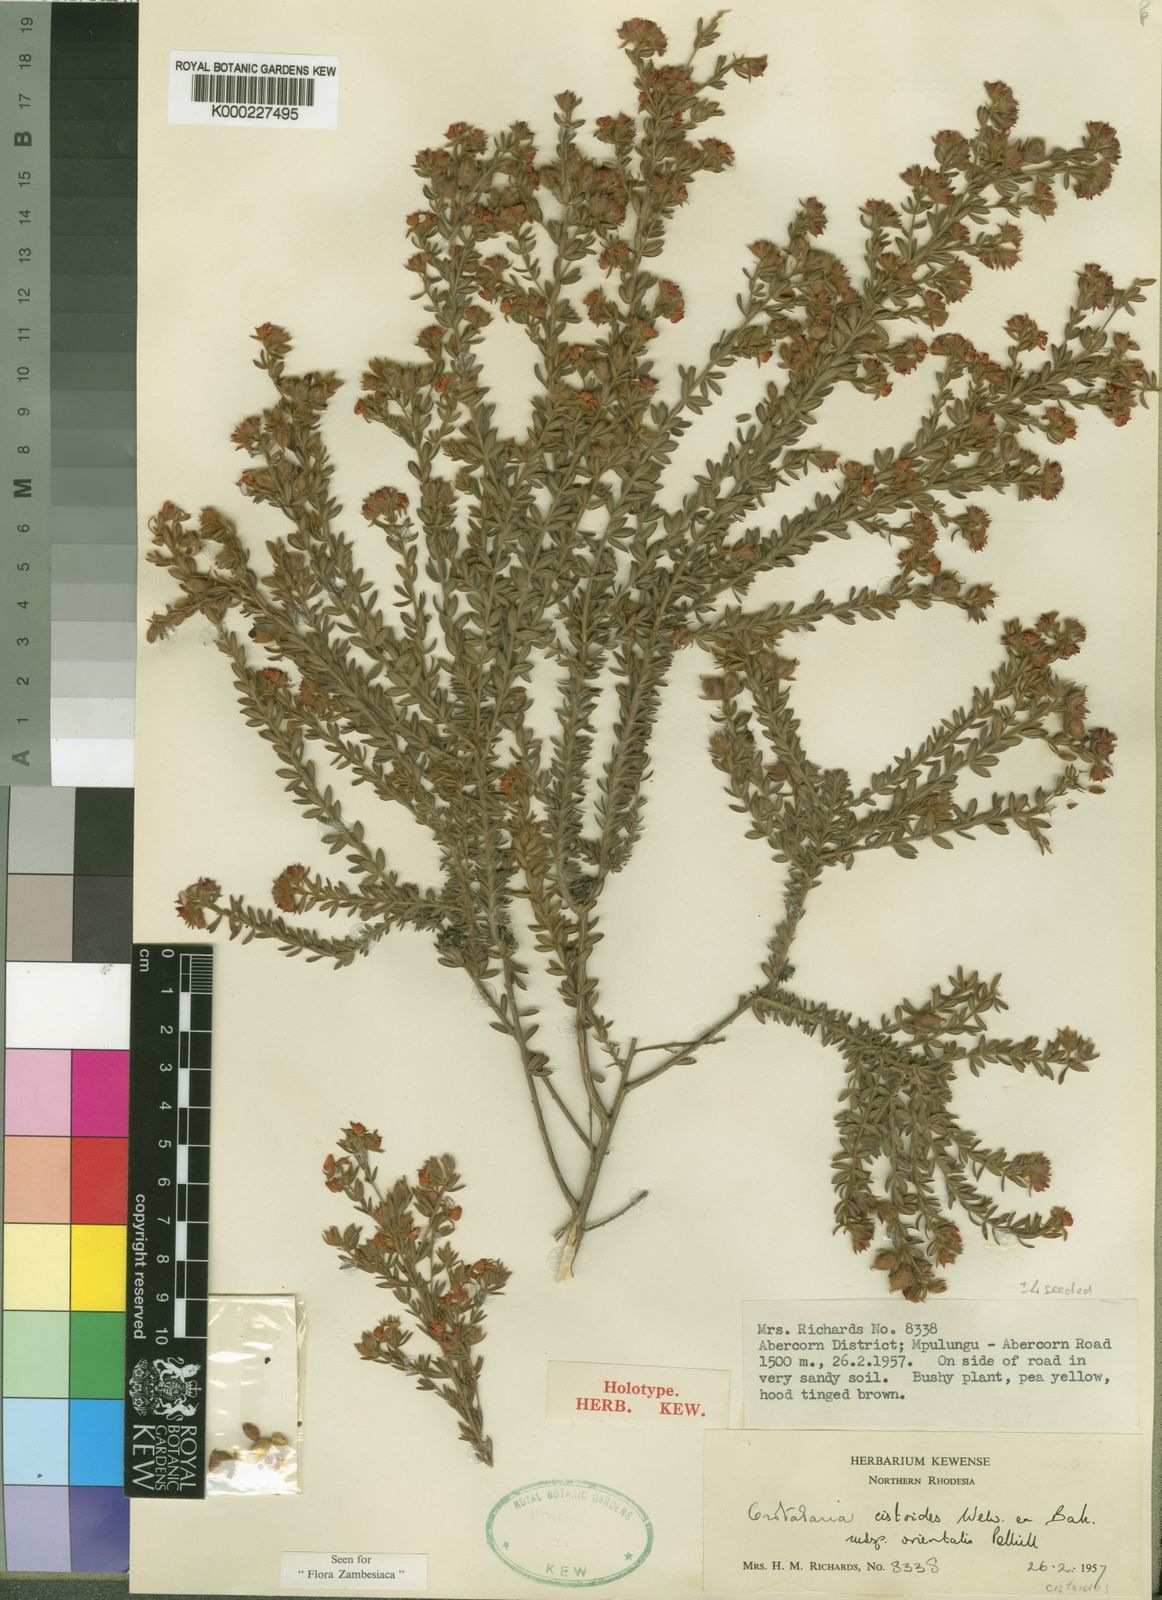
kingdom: Plantae
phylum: Tracheophyta
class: Magnoliopsida
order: Fabales
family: Fabaceae
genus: Crotalaria
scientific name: Crotalaria cistoides
